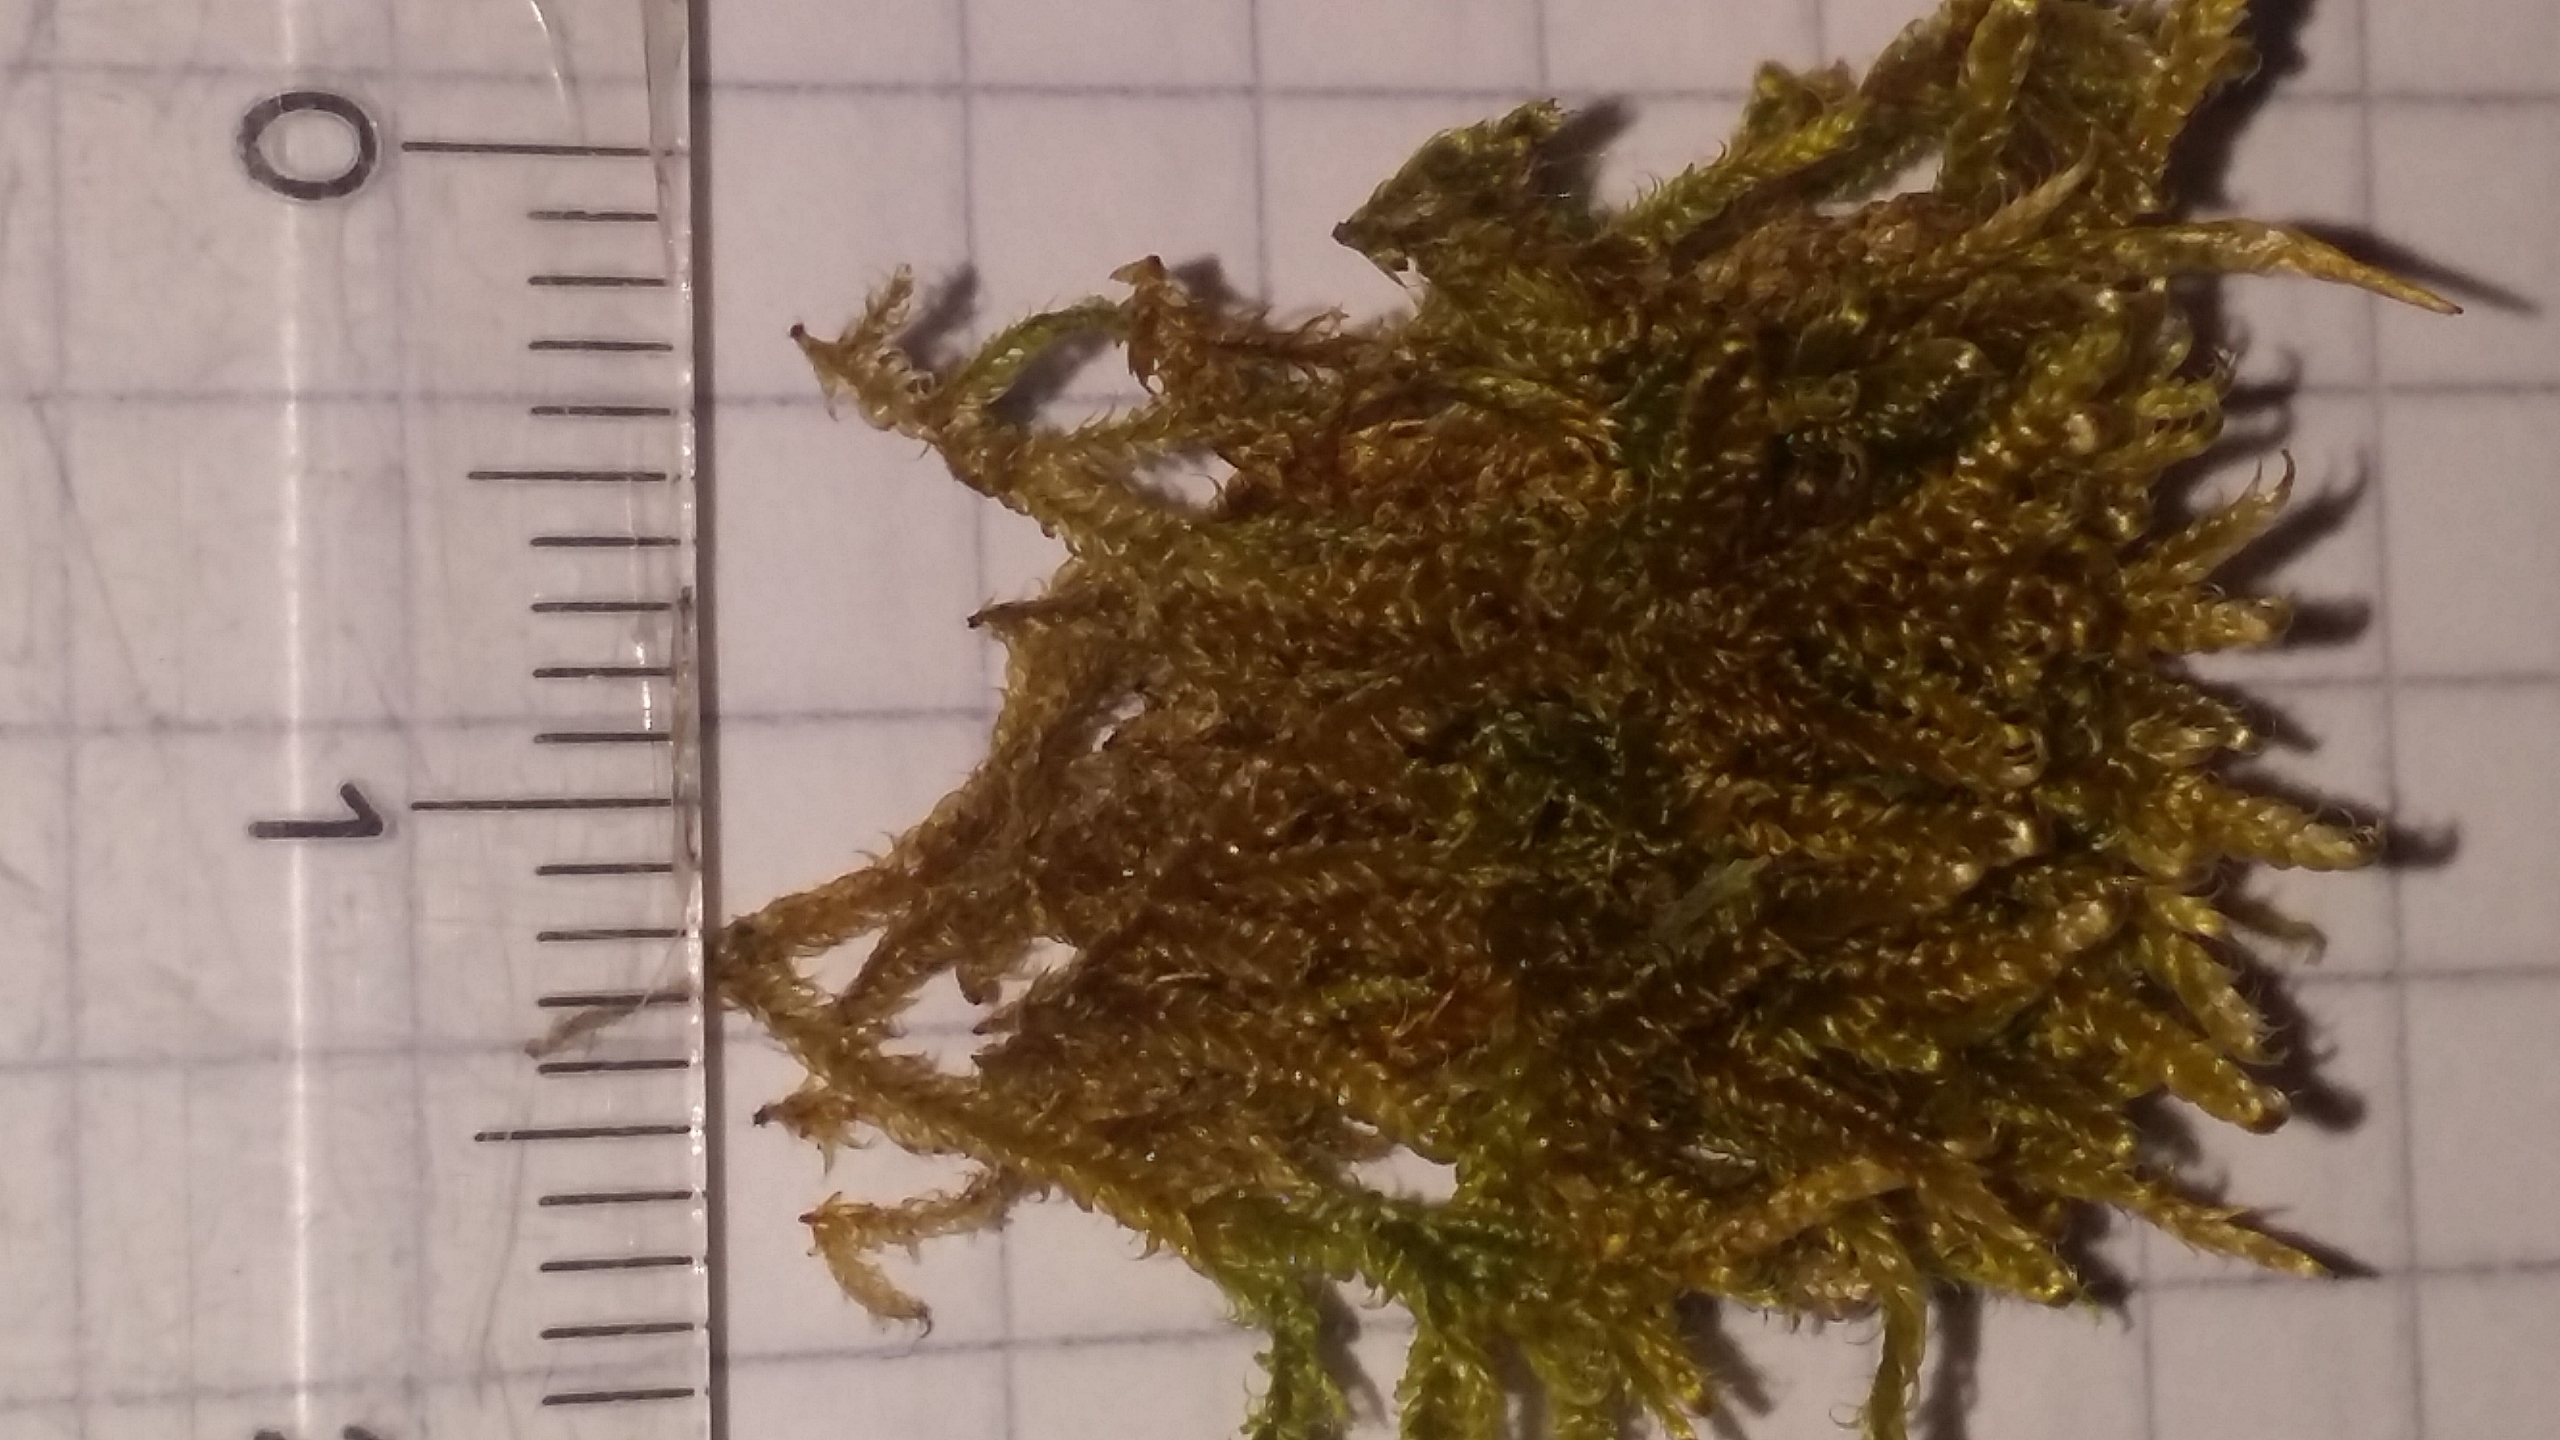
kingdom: Plantae
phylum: Bryophyta
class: Bryopsida
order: Hypnales
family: Hypnaceae
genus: Hypnum
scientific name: Hypnum cupressiforme
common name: Almindelig cypresmos
